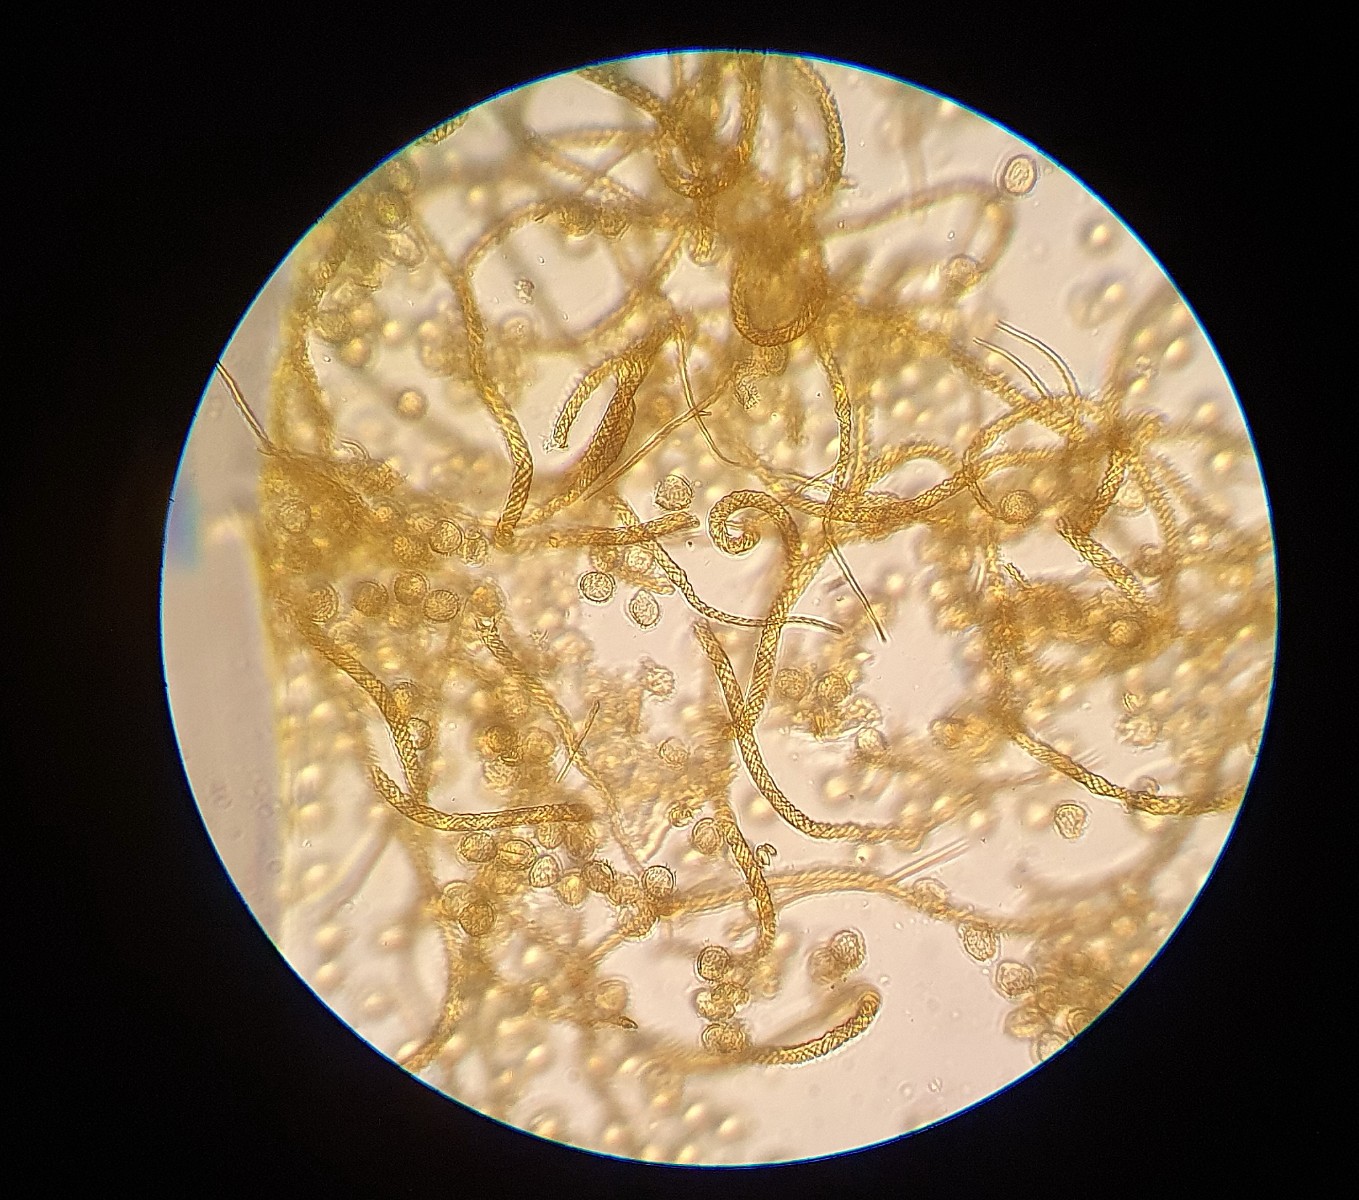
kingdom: Protozoa
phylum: Mycetozoa
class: Myxomycetes
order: Trichiales
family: Arcyriaceae
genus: Hemitrichia
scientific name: Hemitrichia decipiens
